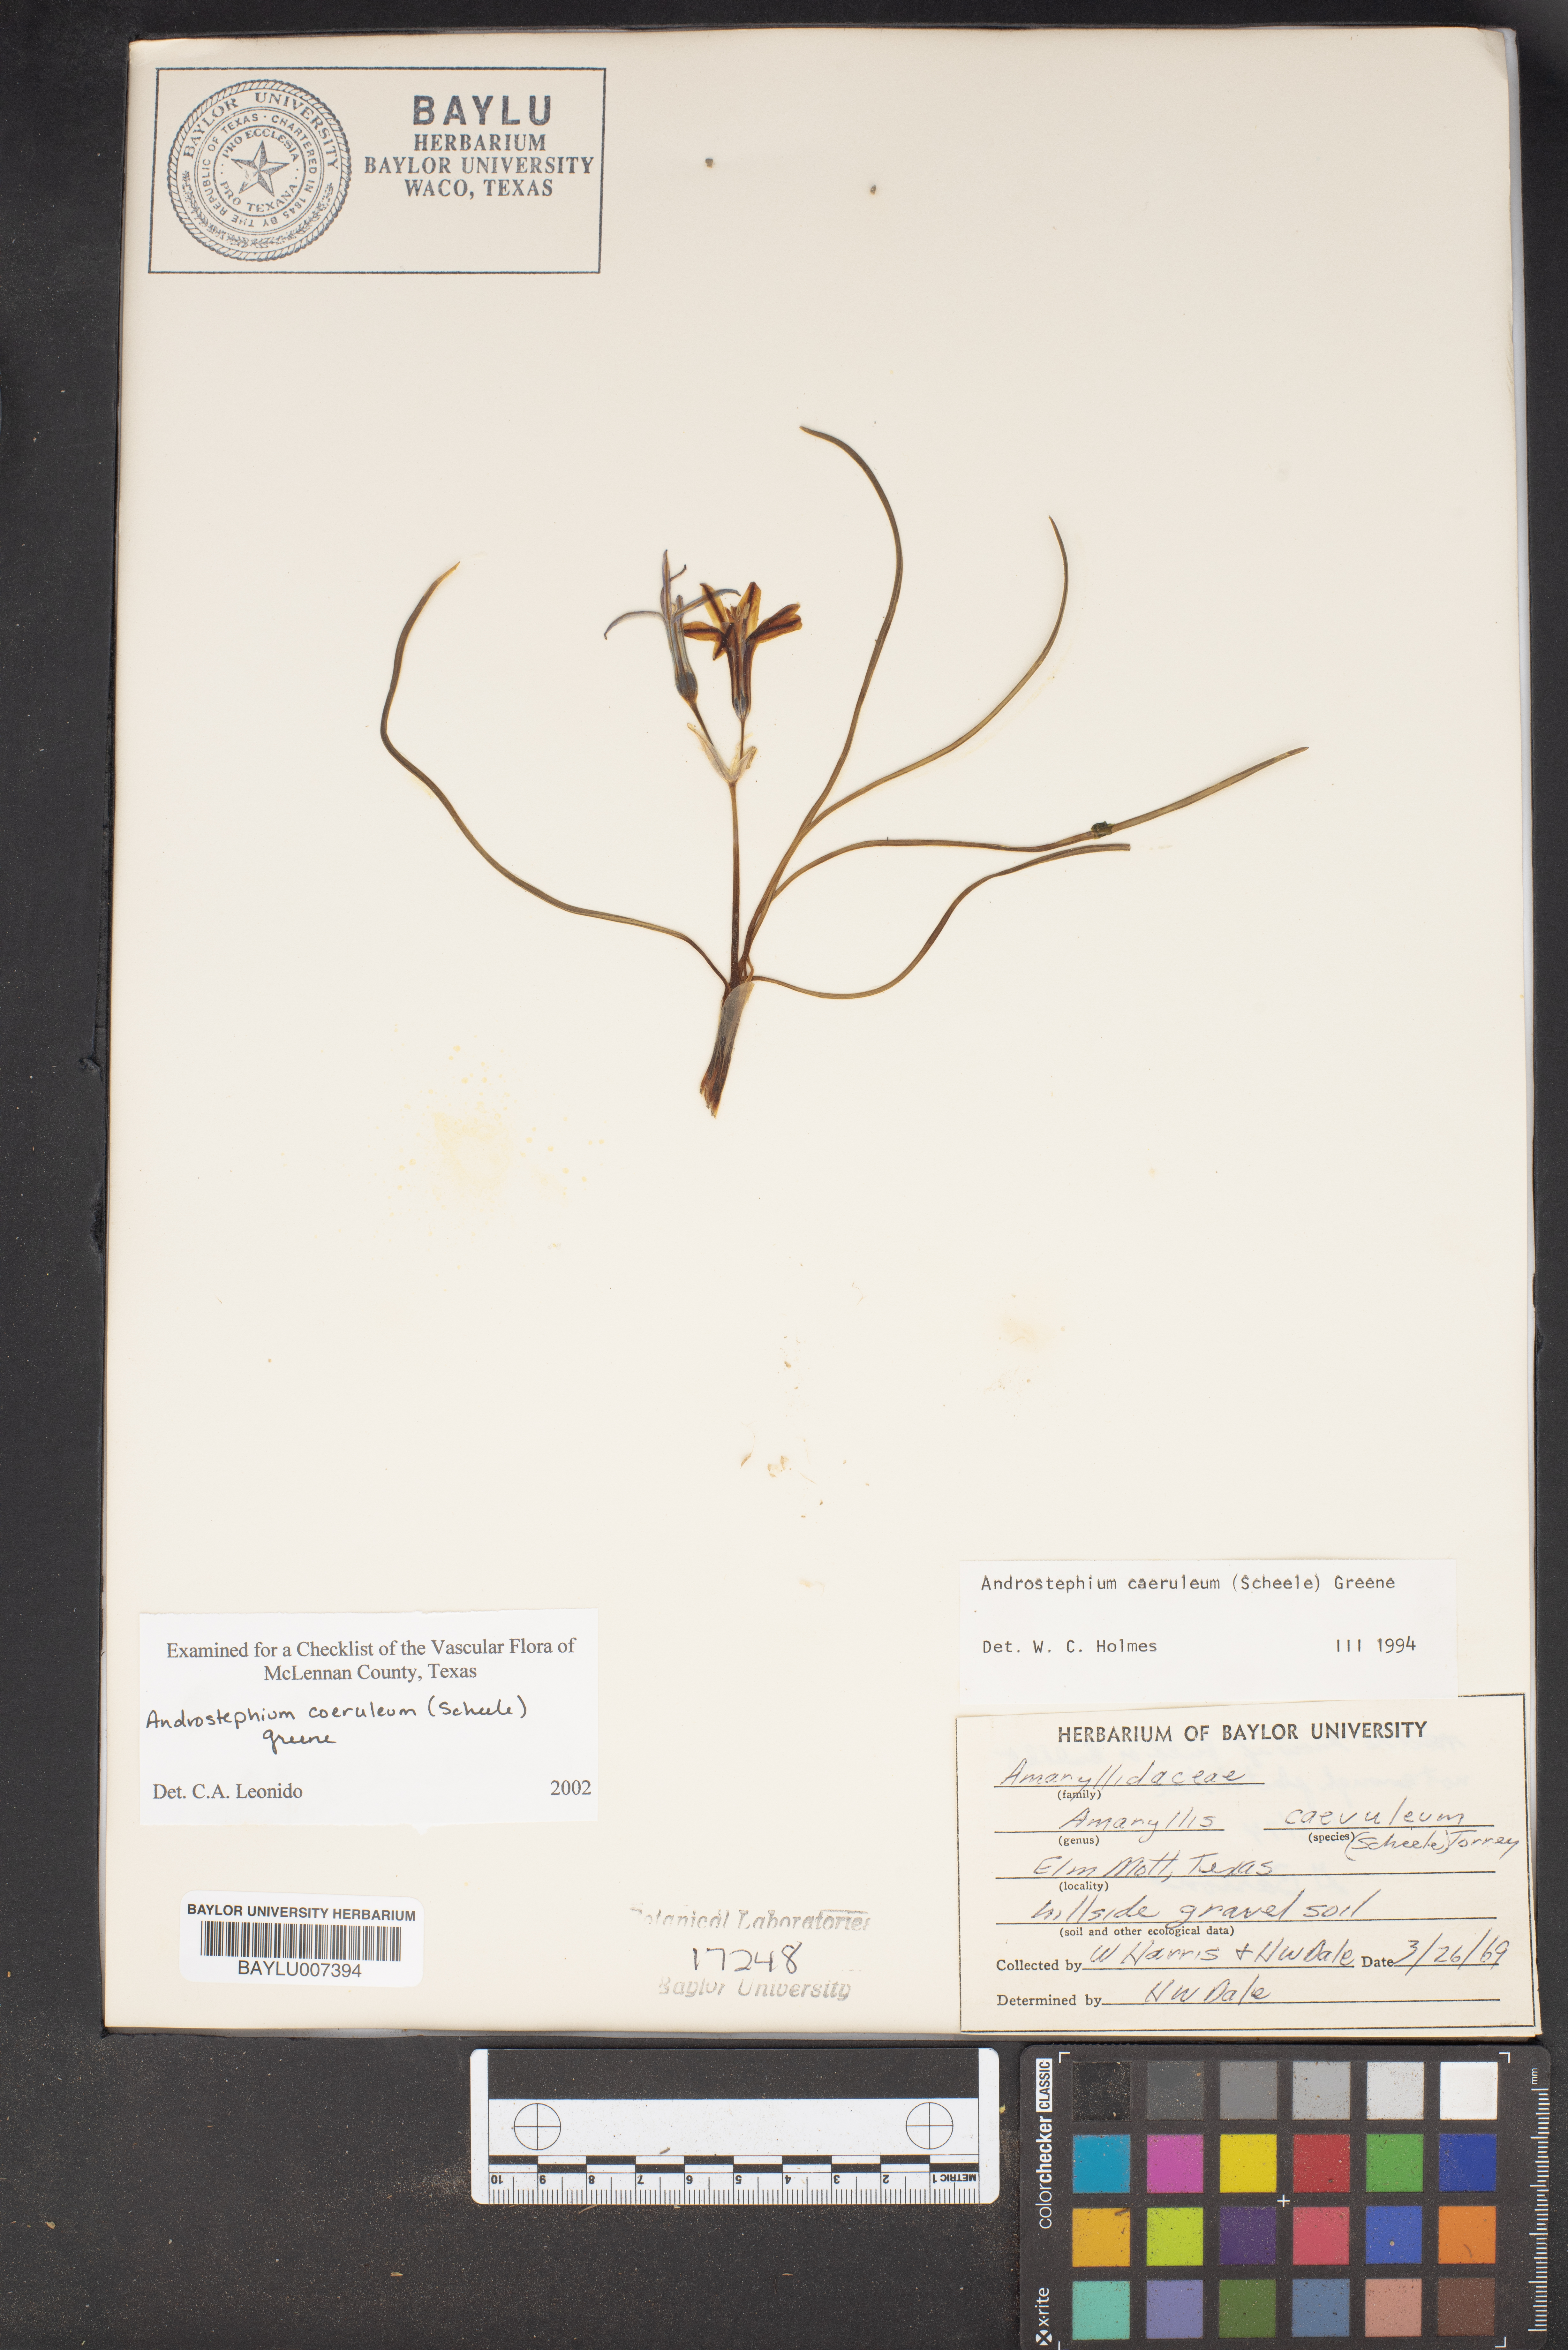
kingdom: Plantae
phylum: Tracheophyta
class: Liliopsida
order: Asparagales
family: Asparagaceae
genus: Androstephium
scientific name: Androstephium coeruleum
